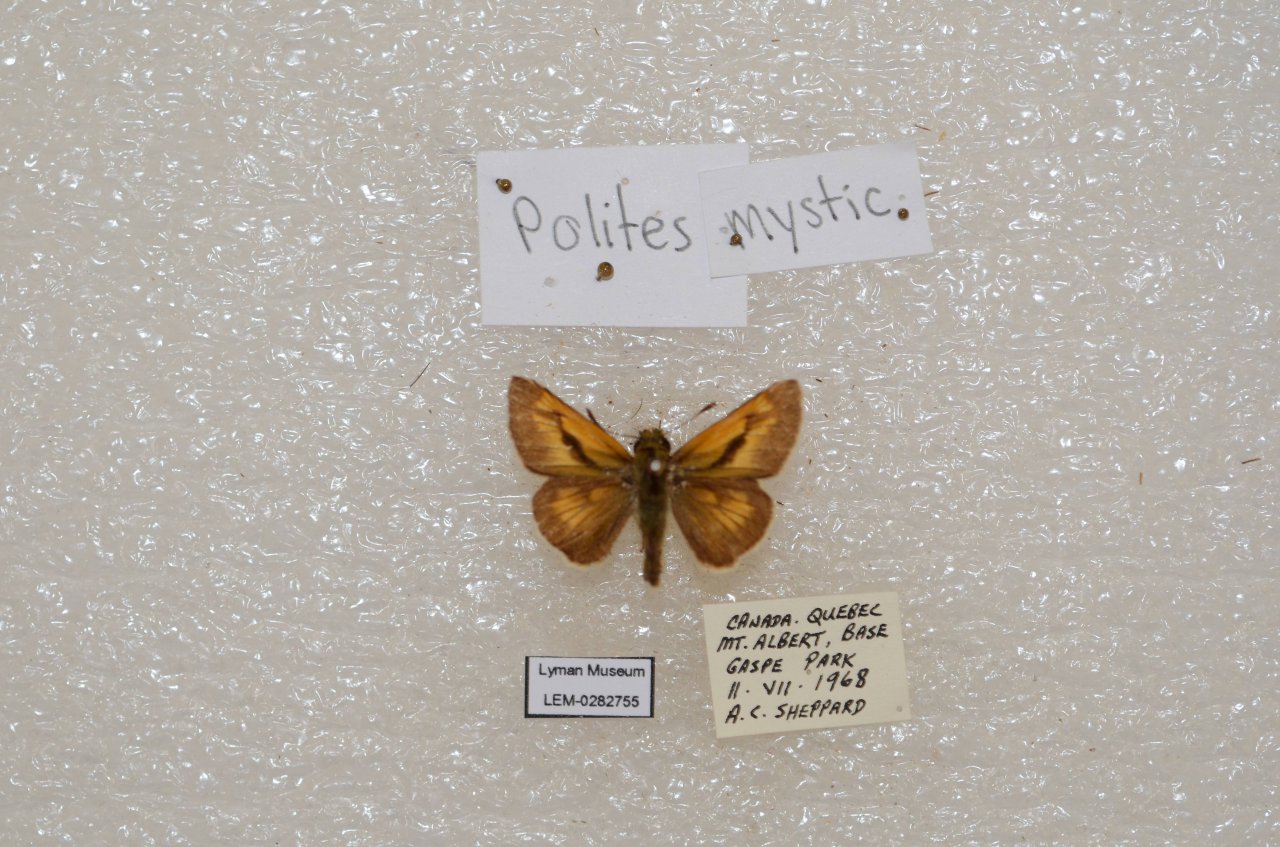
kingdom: Animalia
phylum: Arthropoda
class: Insecta
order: Lepidoptera
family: Hesperiidae
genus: Polites
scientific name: Polites
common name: Long Dash Skipper
